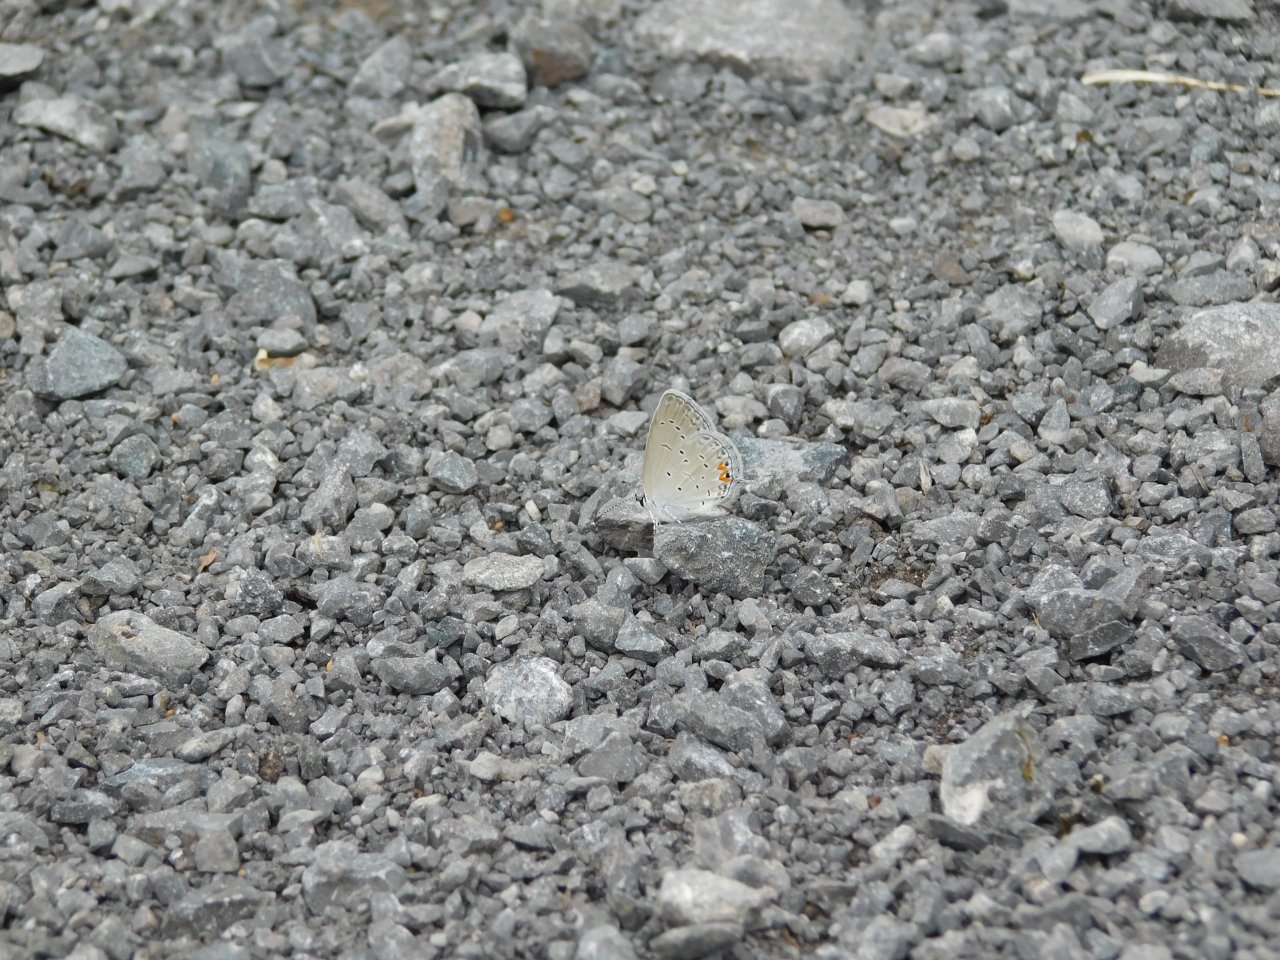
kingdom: Animalia
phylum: Arthropoda
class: Insecta
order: Lepidoptera
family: Lycaenidae
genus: Elkalyce
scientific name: Elkalyce comyntas
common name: Eastern Tailed-Blue
